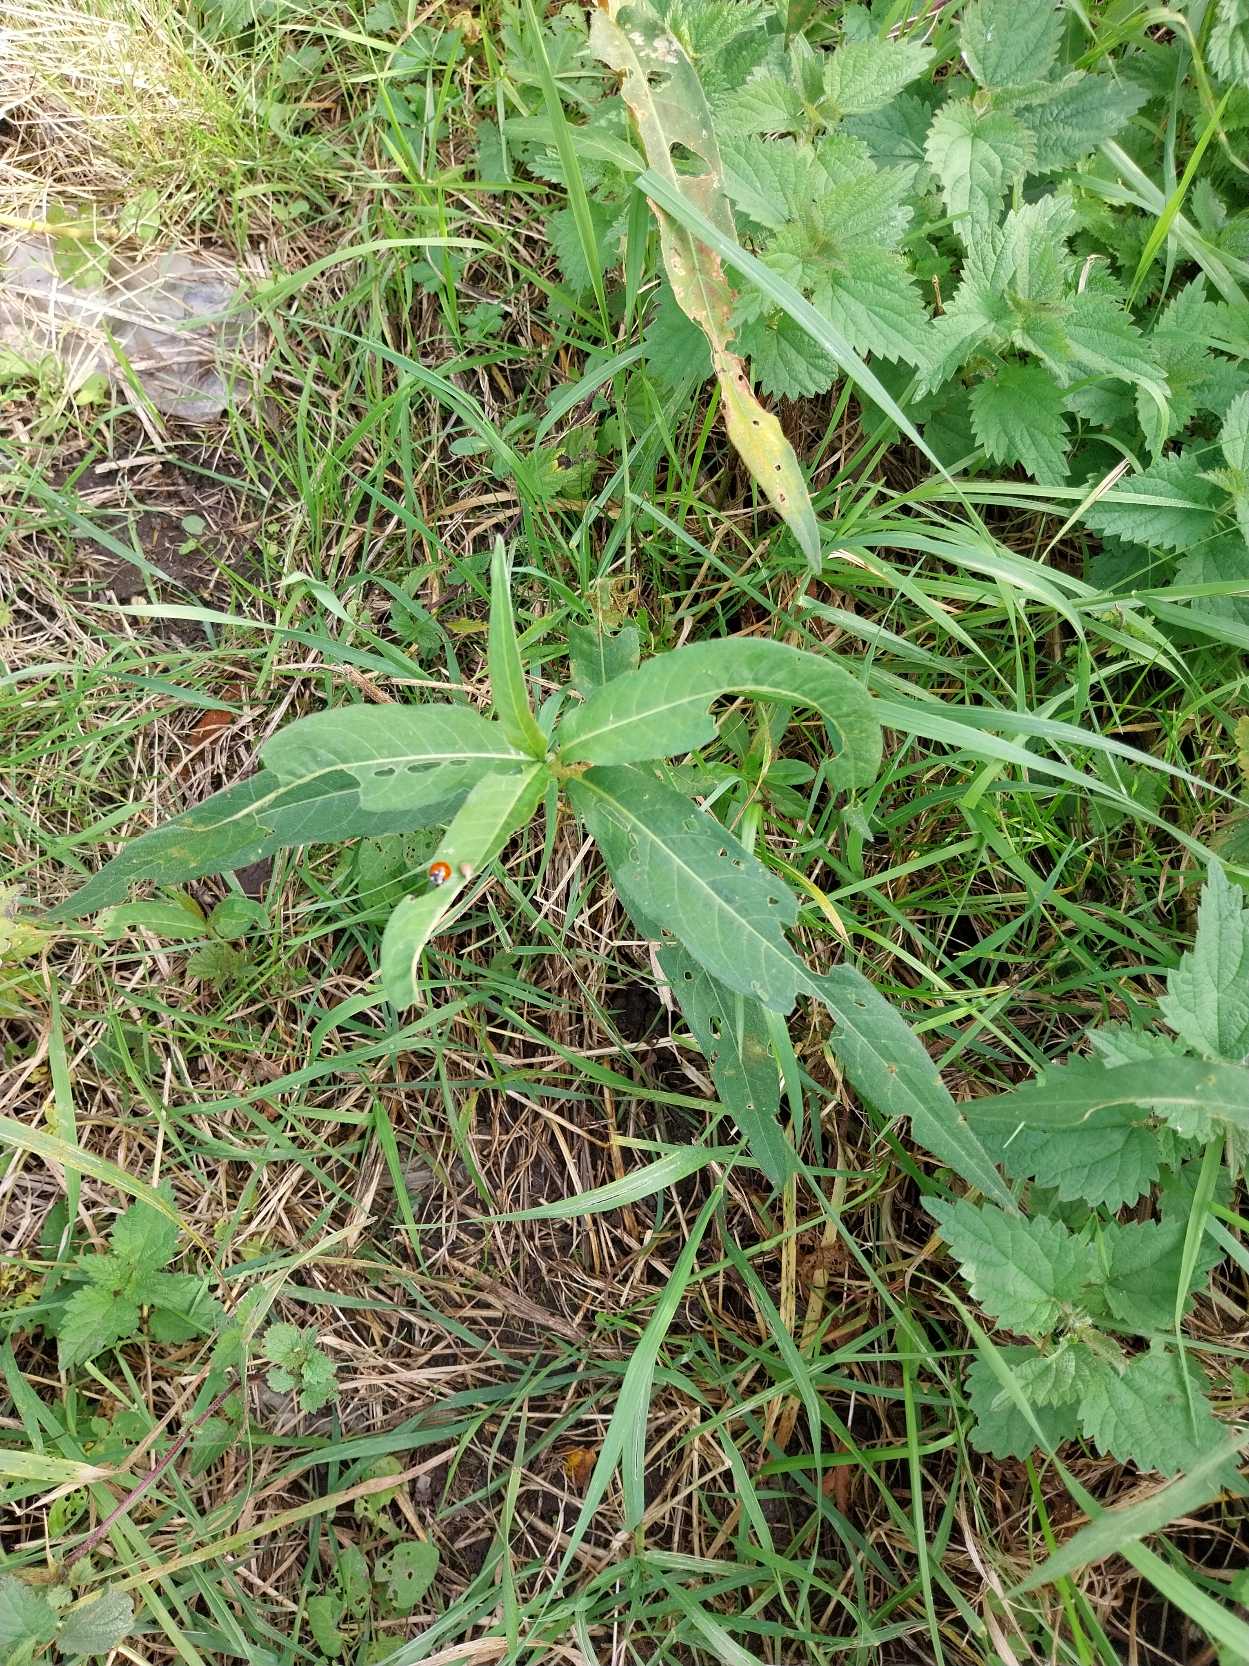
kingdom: Plantae
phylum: Tracheophyta
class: Magnoliopsida
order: Caryophyllales
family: Polygonaceae
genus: Persicaria
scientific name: Persicaria amphibia
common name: Vand-pileurt
